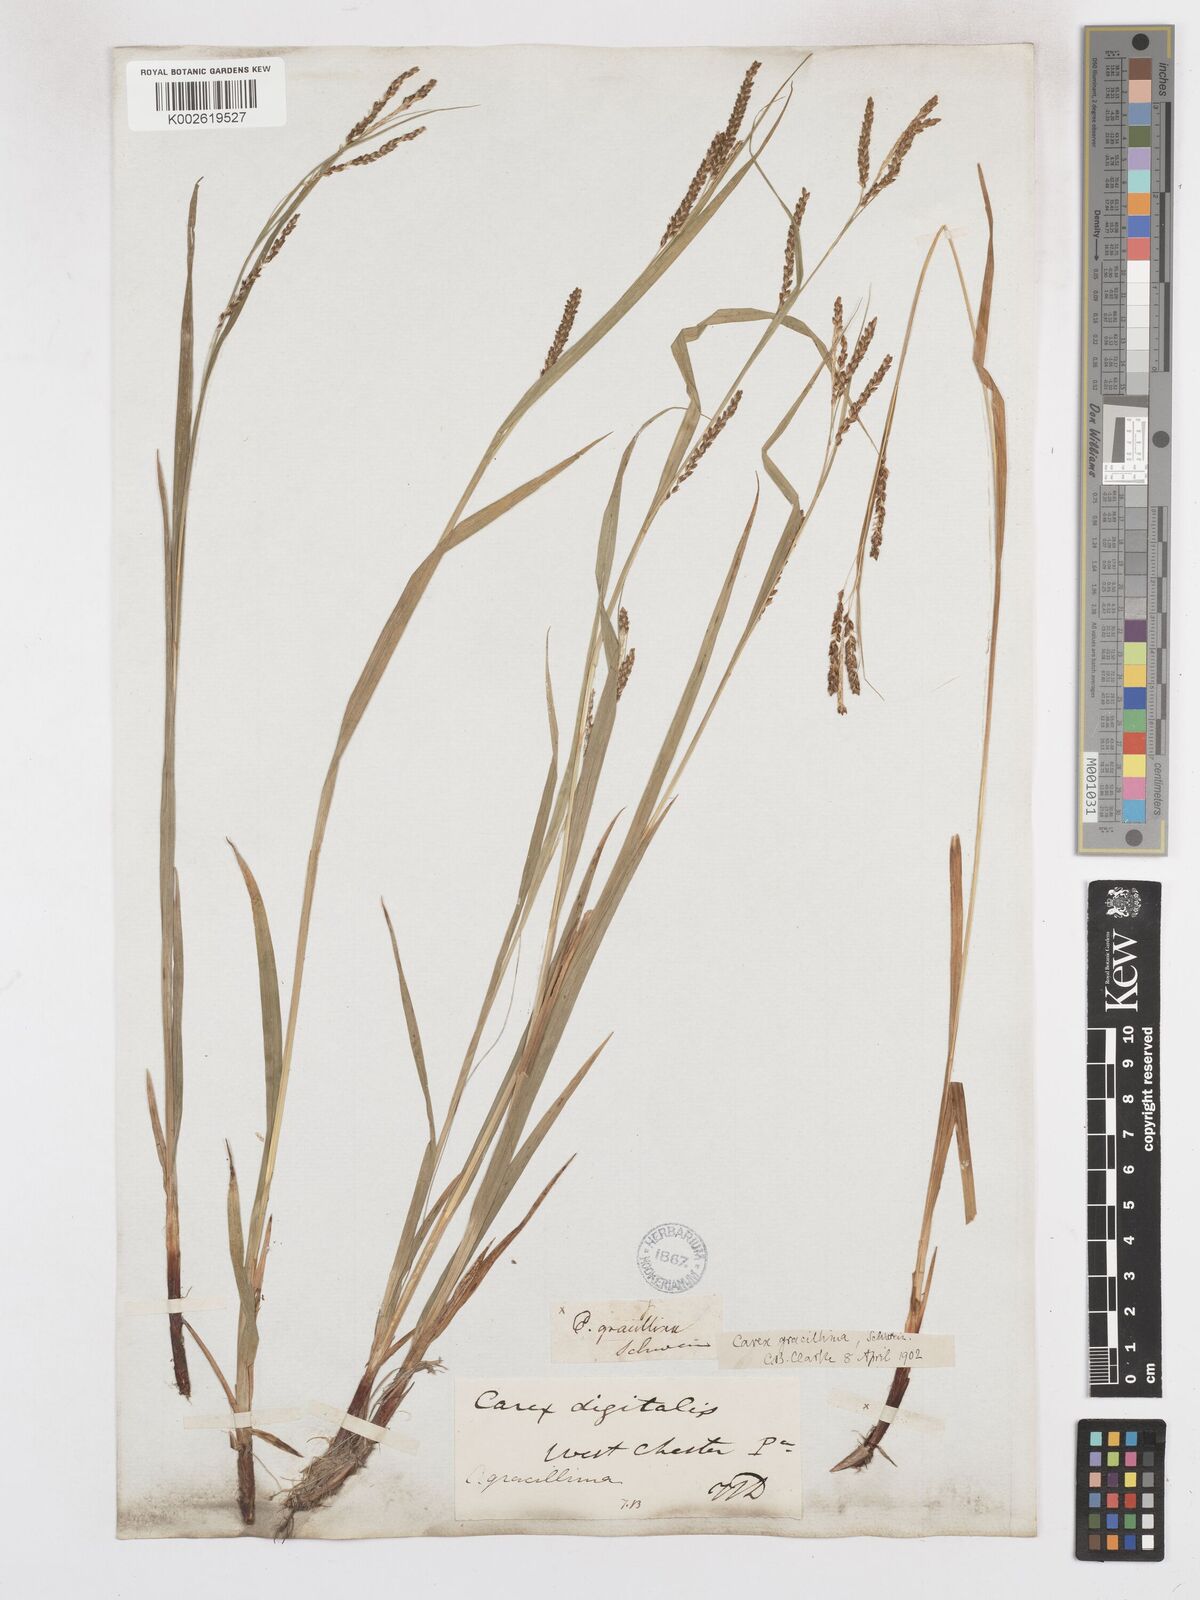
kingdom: Plantae
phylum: Tracheophyta
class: Liliopsida
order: Poales
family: Cyperaceae
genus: Carex
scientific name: Carex gracillima
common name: Graceful sedge
